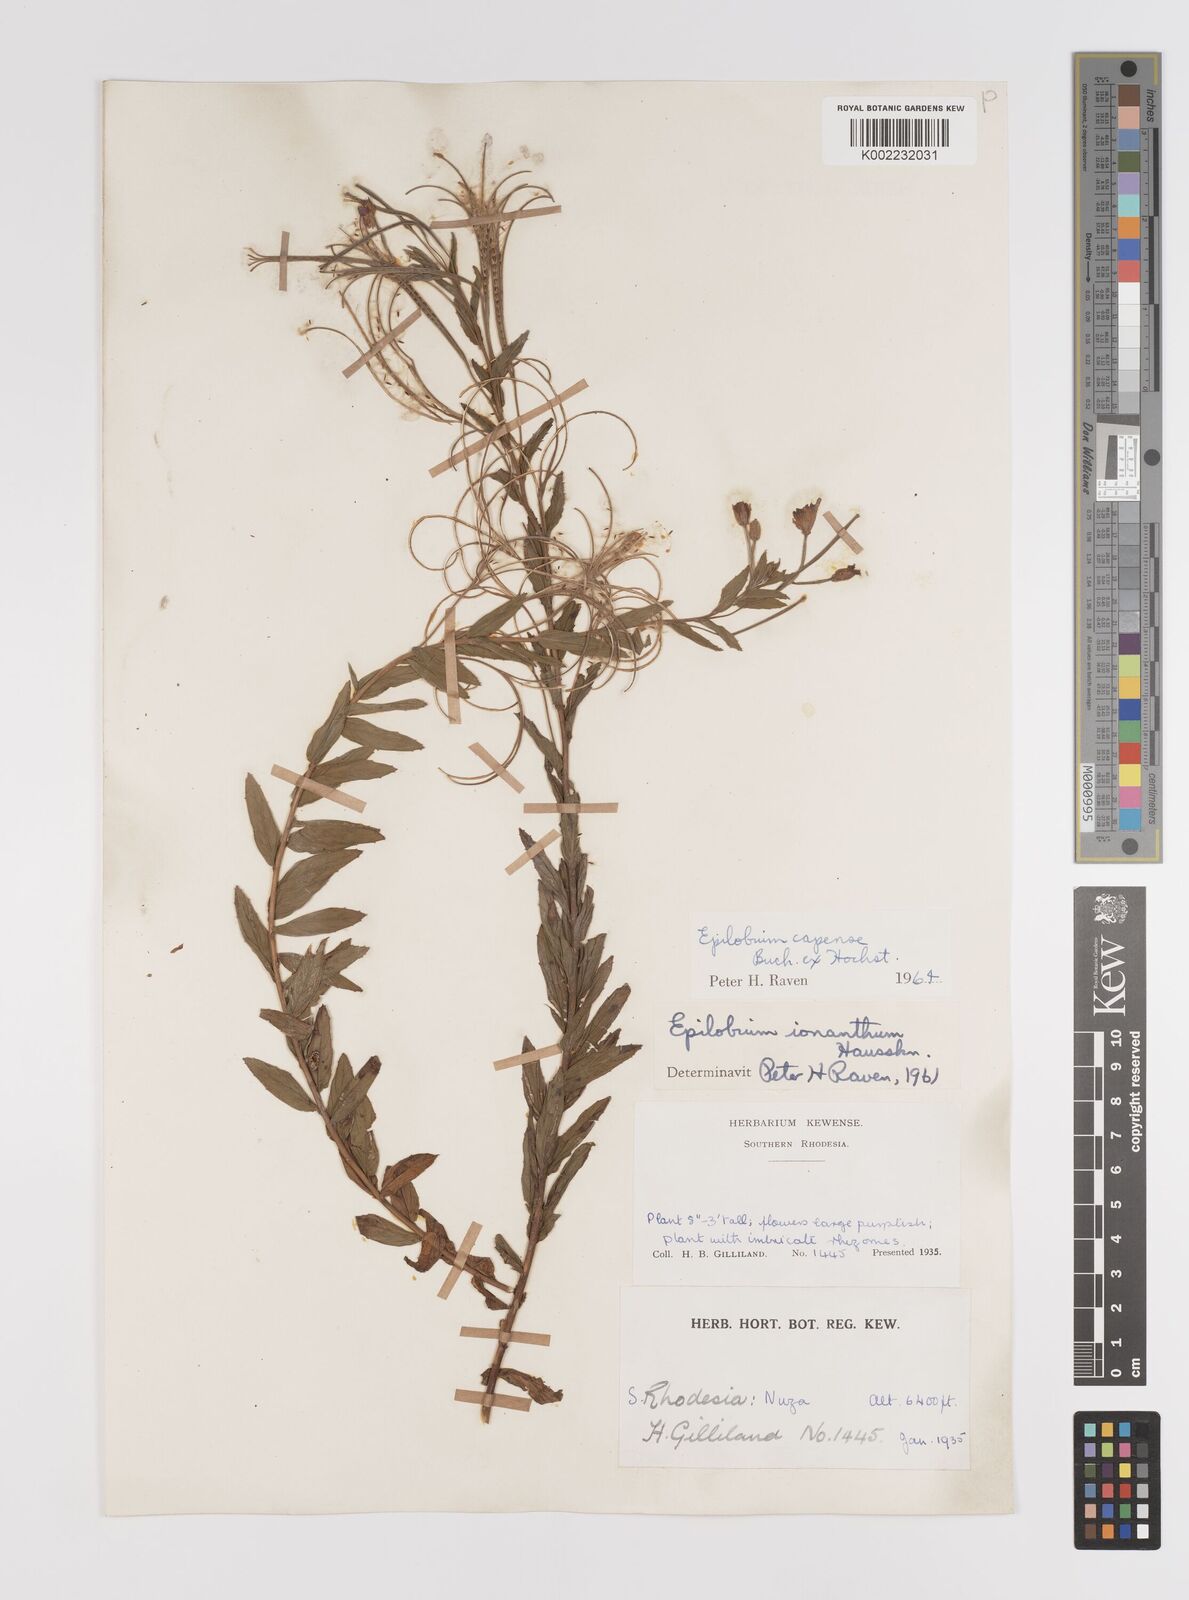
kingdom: Plantae
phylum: Tracheophyta
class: Magnoliopsida
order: Myrtales
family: Onagraceae
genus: Epilobium
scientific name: Epilobium capense
